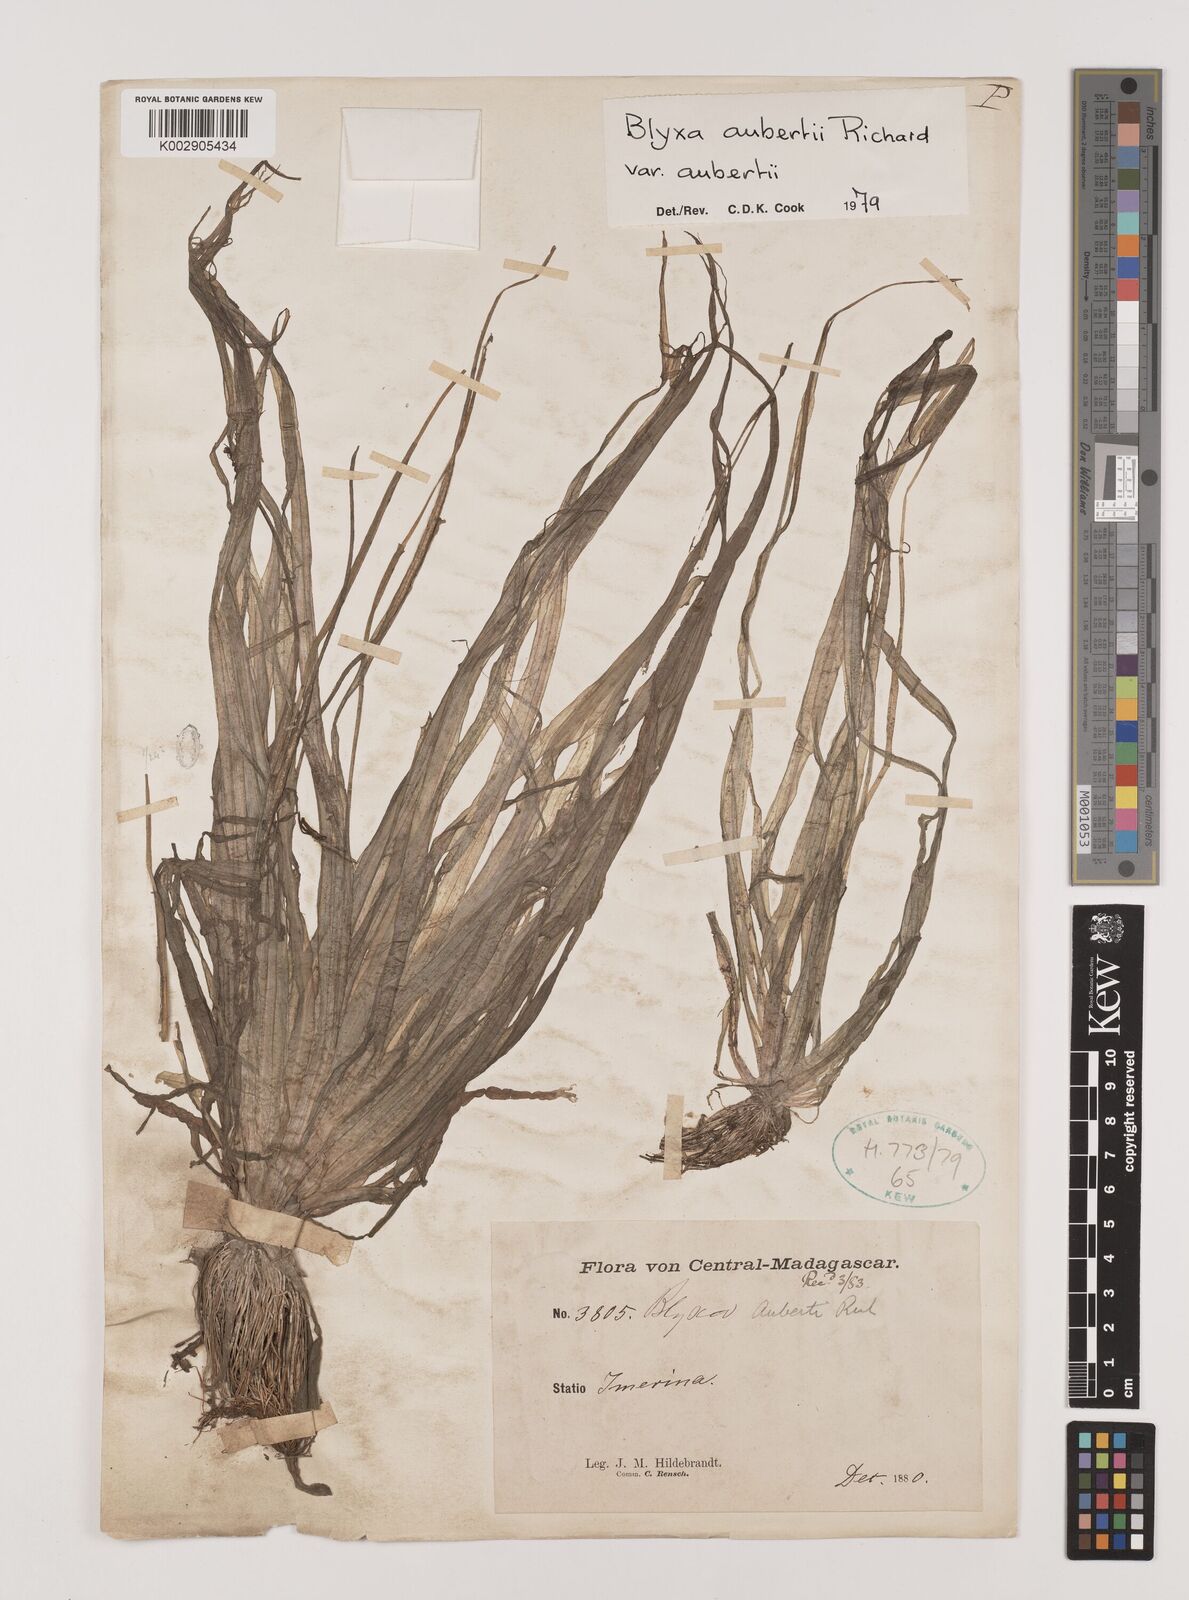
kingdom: Plantae
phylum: Tracheophyta
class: Liliopsida
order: Alismatales
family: Hydrocharitaceae
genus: Blyxa
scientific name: Blyxa aubertii
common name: Roundfruit blyxa
